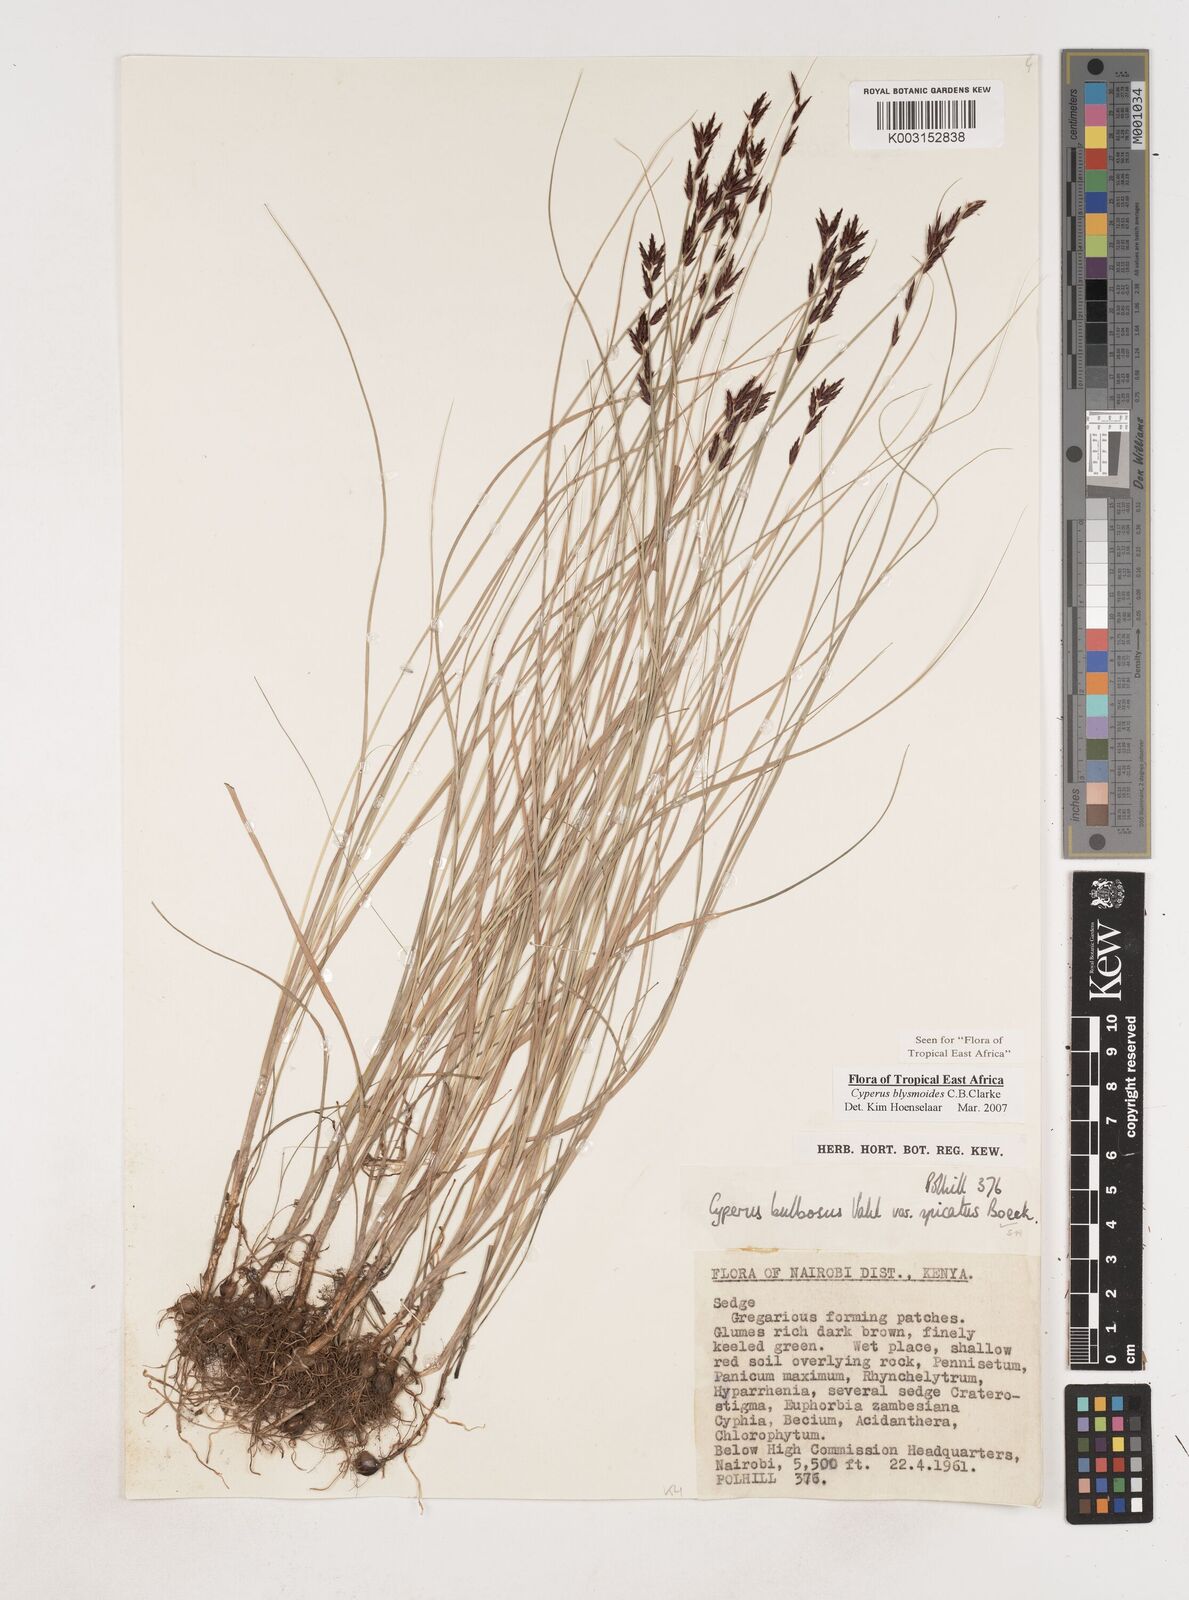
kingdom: Plantae
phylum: Tracheophyta
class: Liliopsida
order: Poales
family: Cyperaceae
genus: Cyperus
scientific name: Cyperus blysmoides
